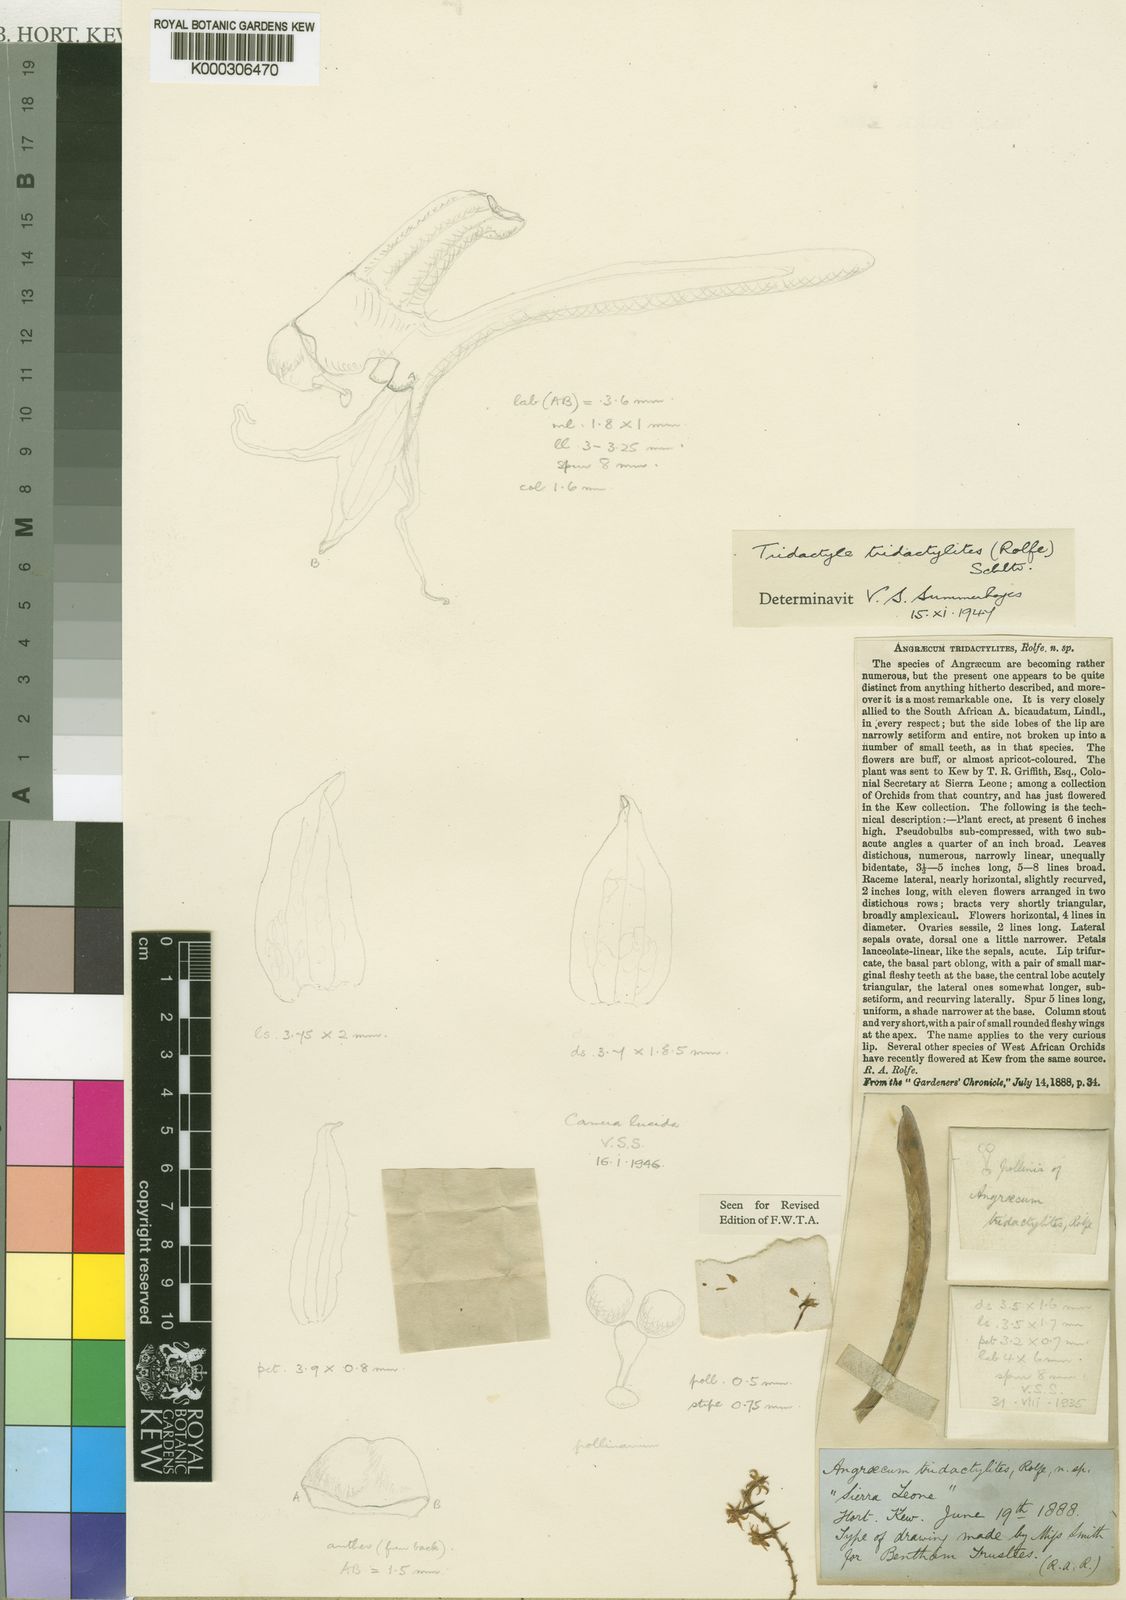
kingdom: Plantae
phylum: Tracheophyta
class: Liliopsida
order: Asparagales
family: Orchidaceae
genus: Tridactyle
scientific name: Tridactyle tridactylites
